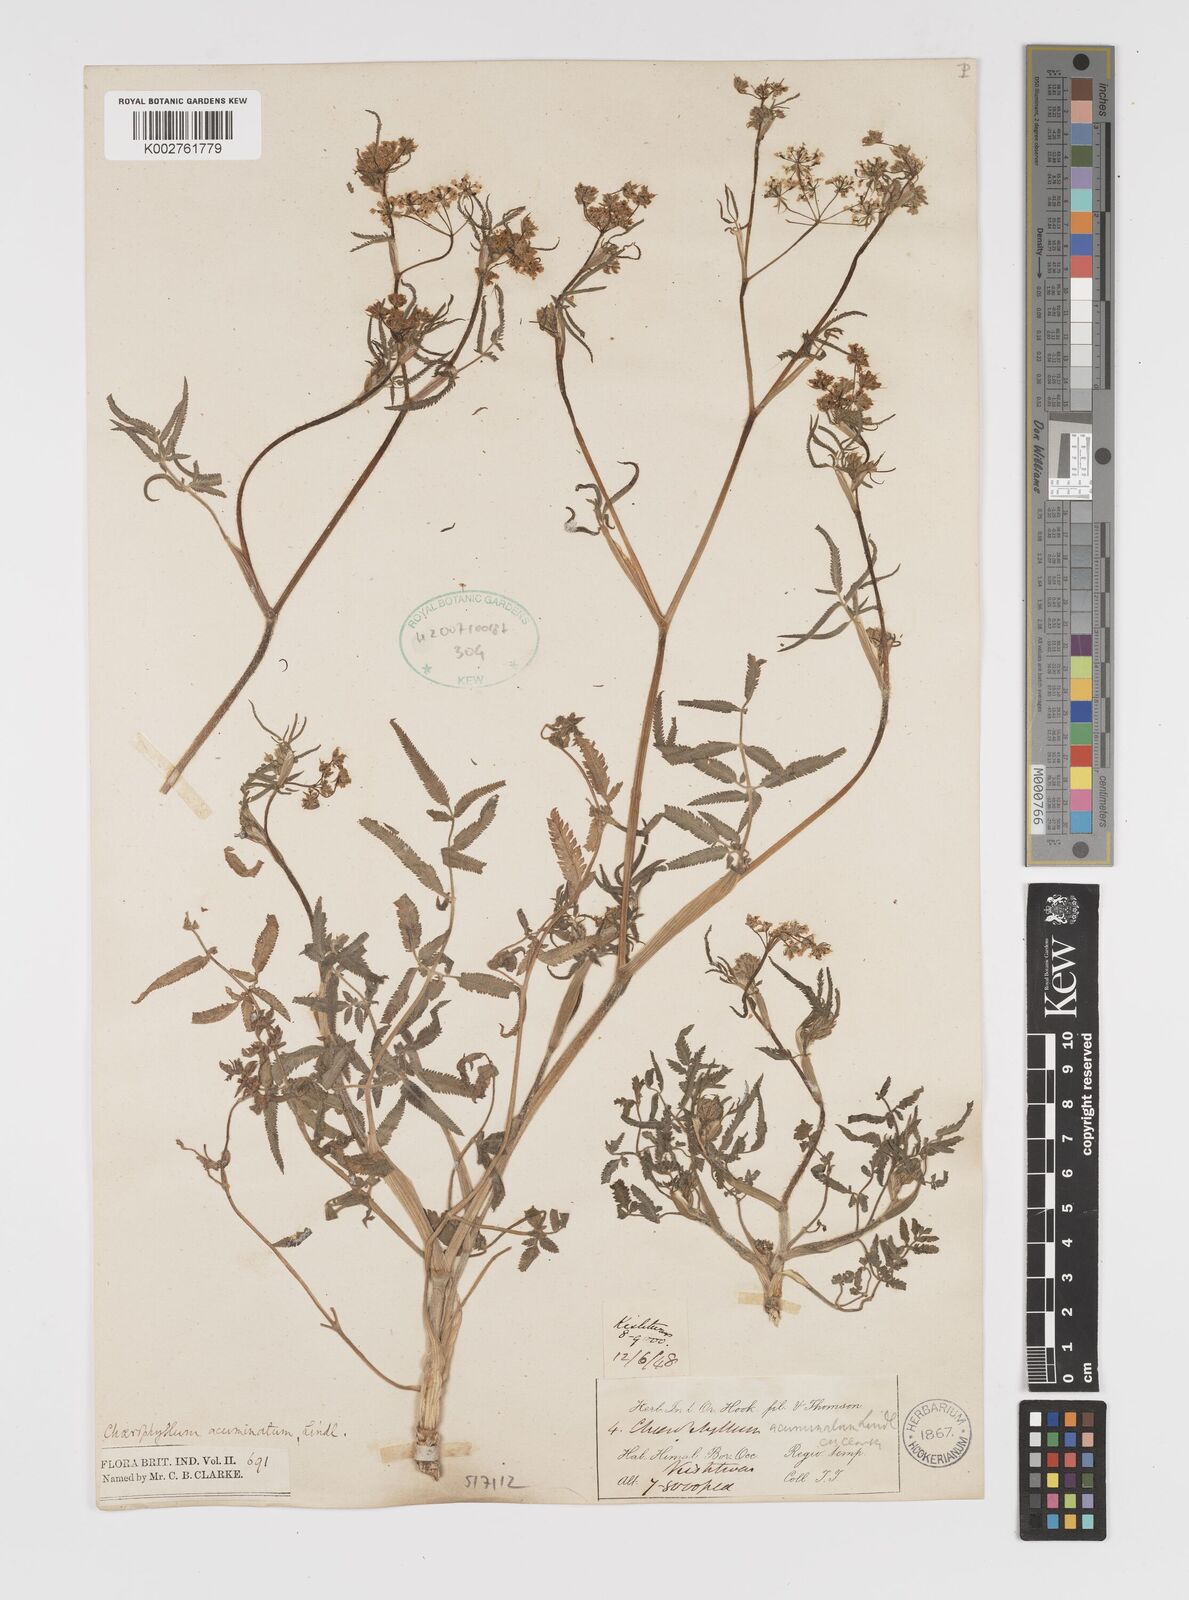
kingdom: Plantae
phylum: Tracheophyta
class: Magnoliopsida
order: Apiales
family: Apiaceae
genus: Chaerophyllum
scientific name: Chaerophyllum reflexum
